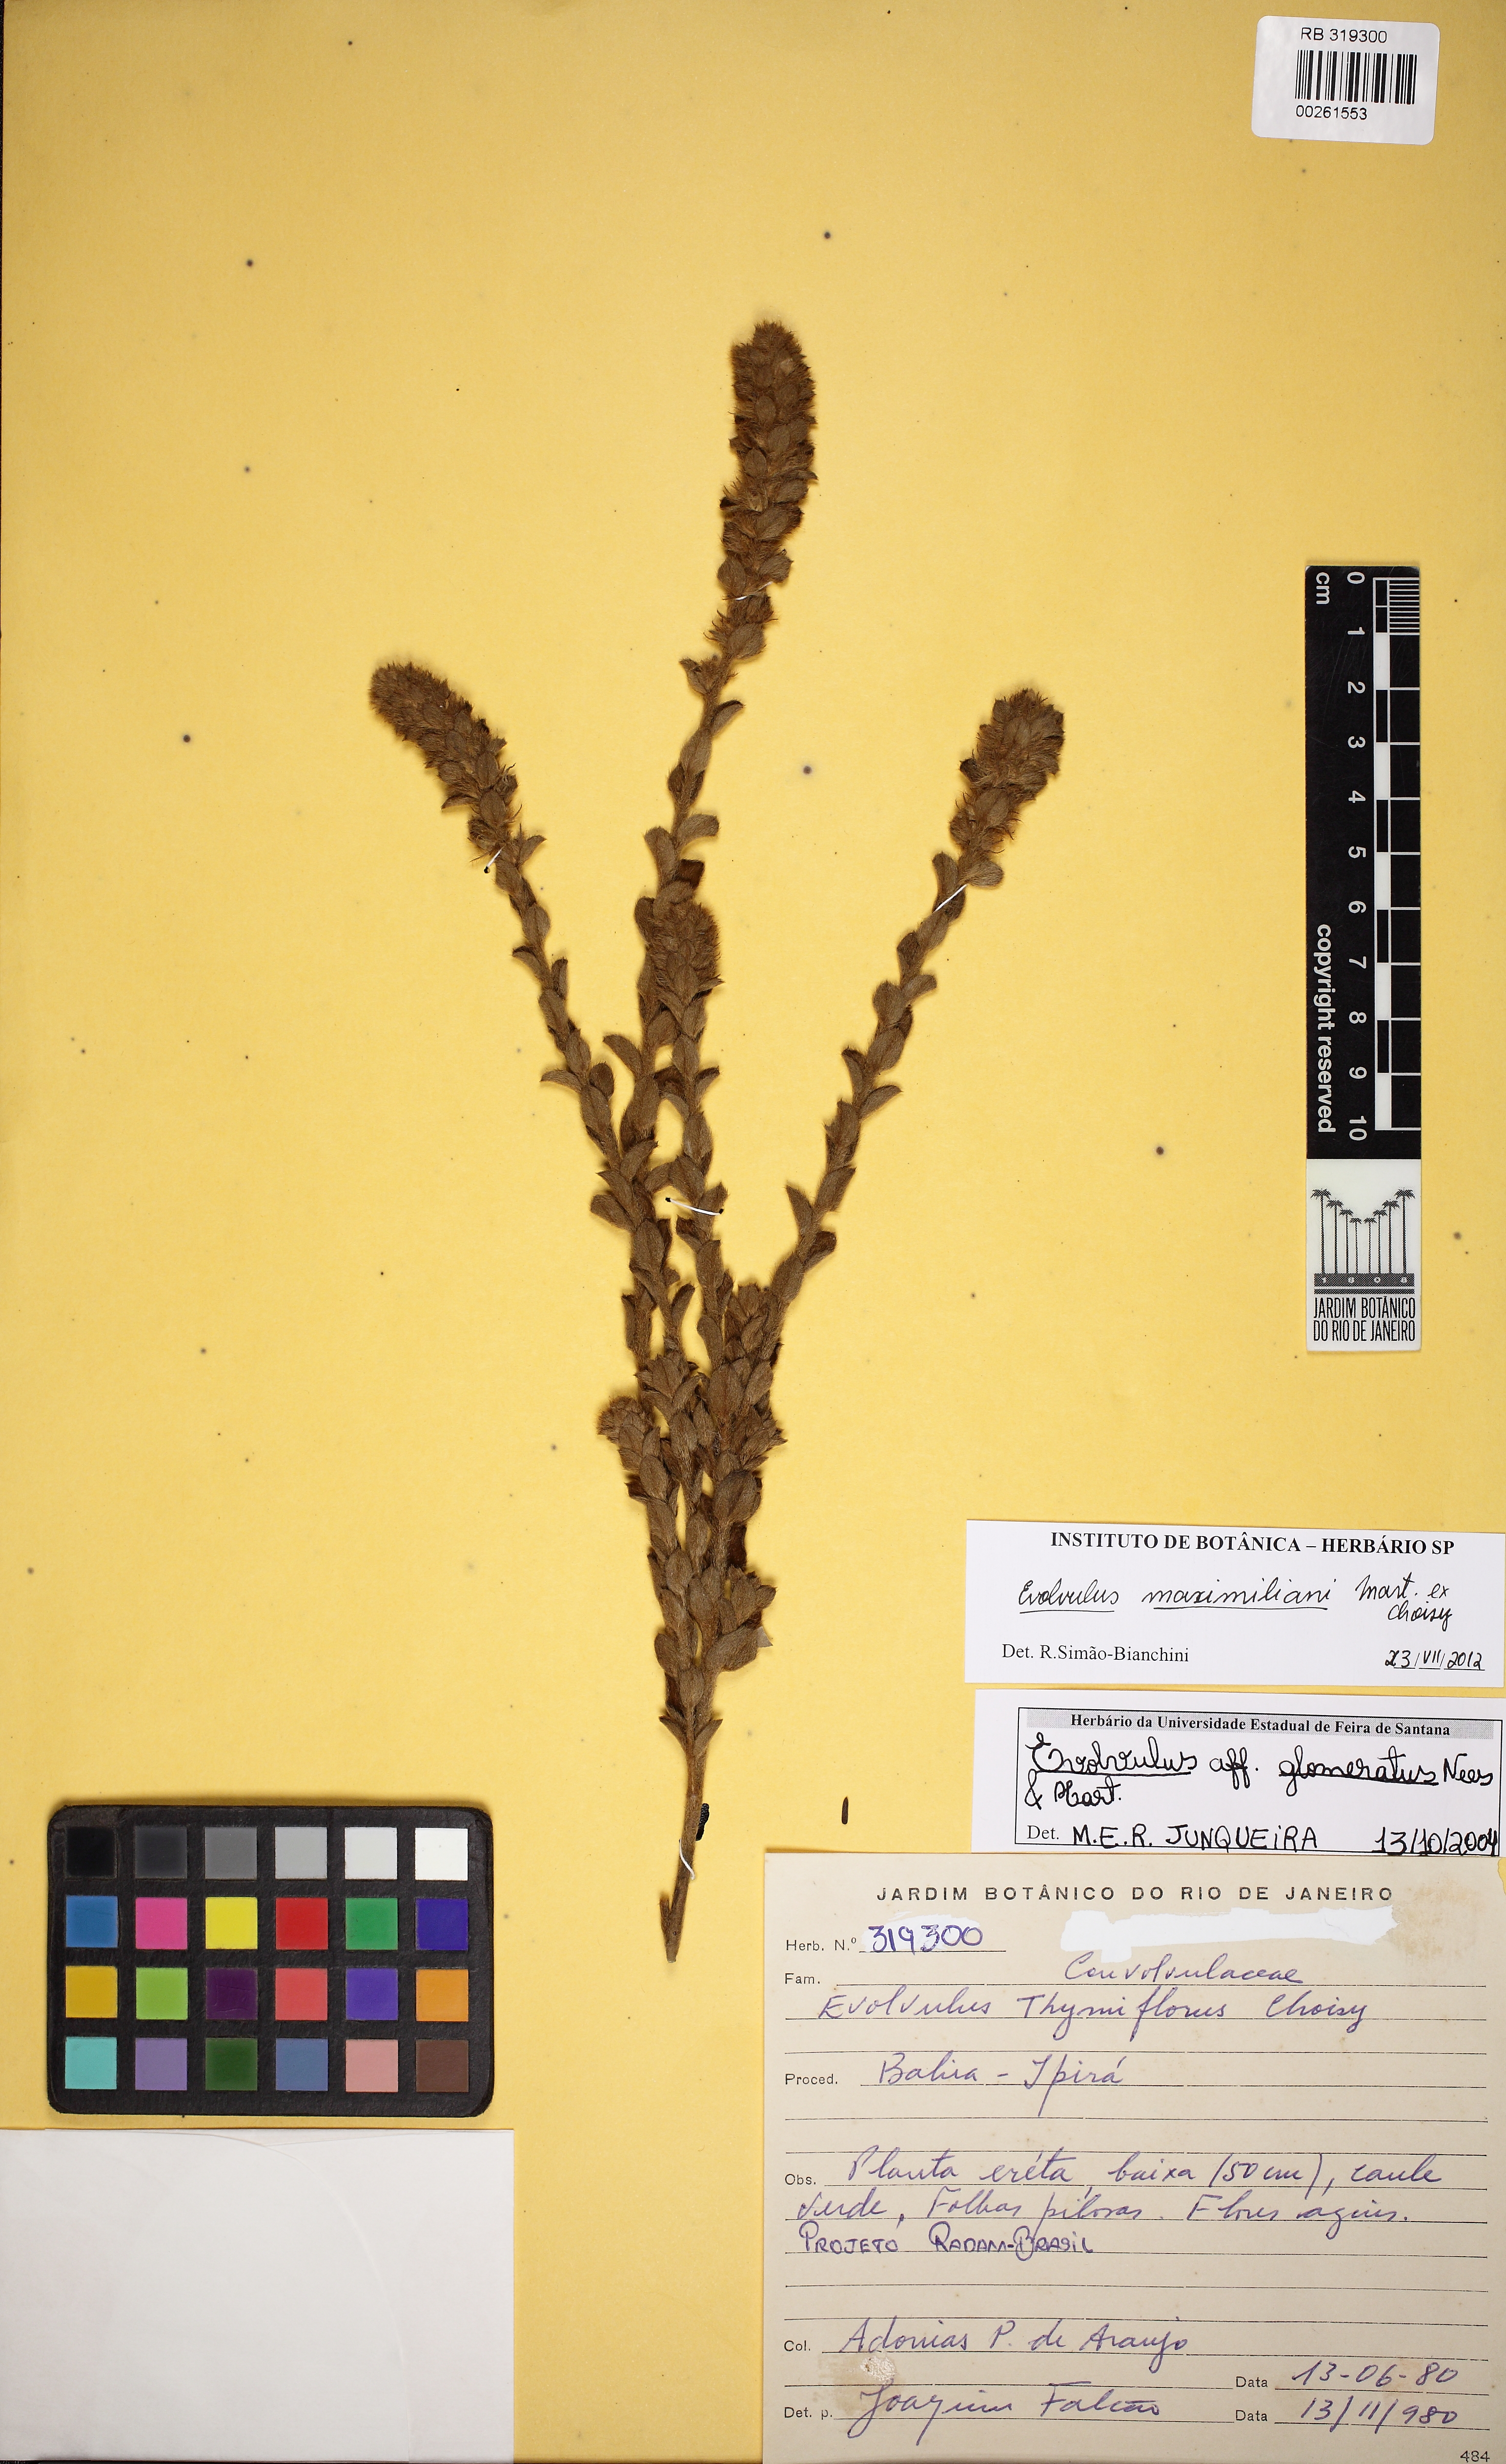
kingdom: Plantae
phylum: Tracheophyta
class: Magnoliopsida
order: Solanales
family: Convolvulaceae
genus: Evolvulus
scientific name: Evolvulus maximiliani
